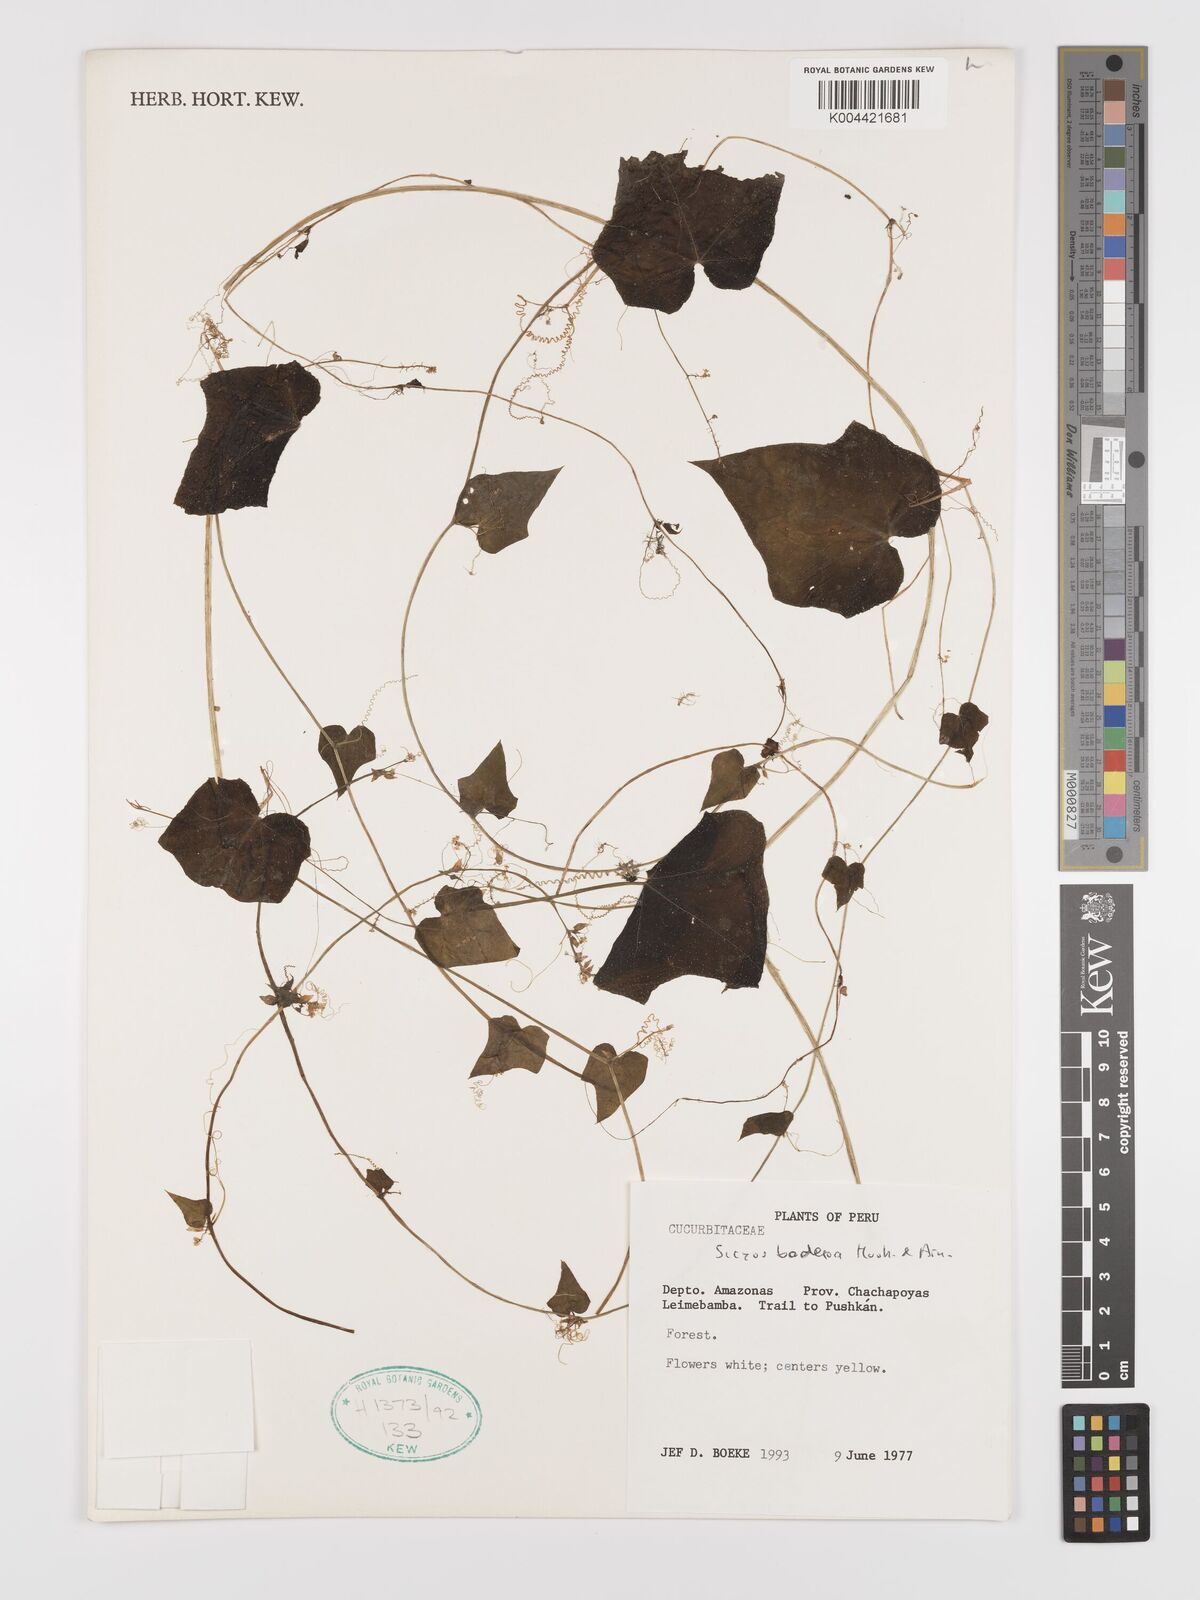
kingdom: Plantae
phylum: Tracheophyta
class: Magnoliopsida
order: Cucurbitales
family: Cucurbitaceae
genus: Sicyos
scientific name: Sicyos baderoa
